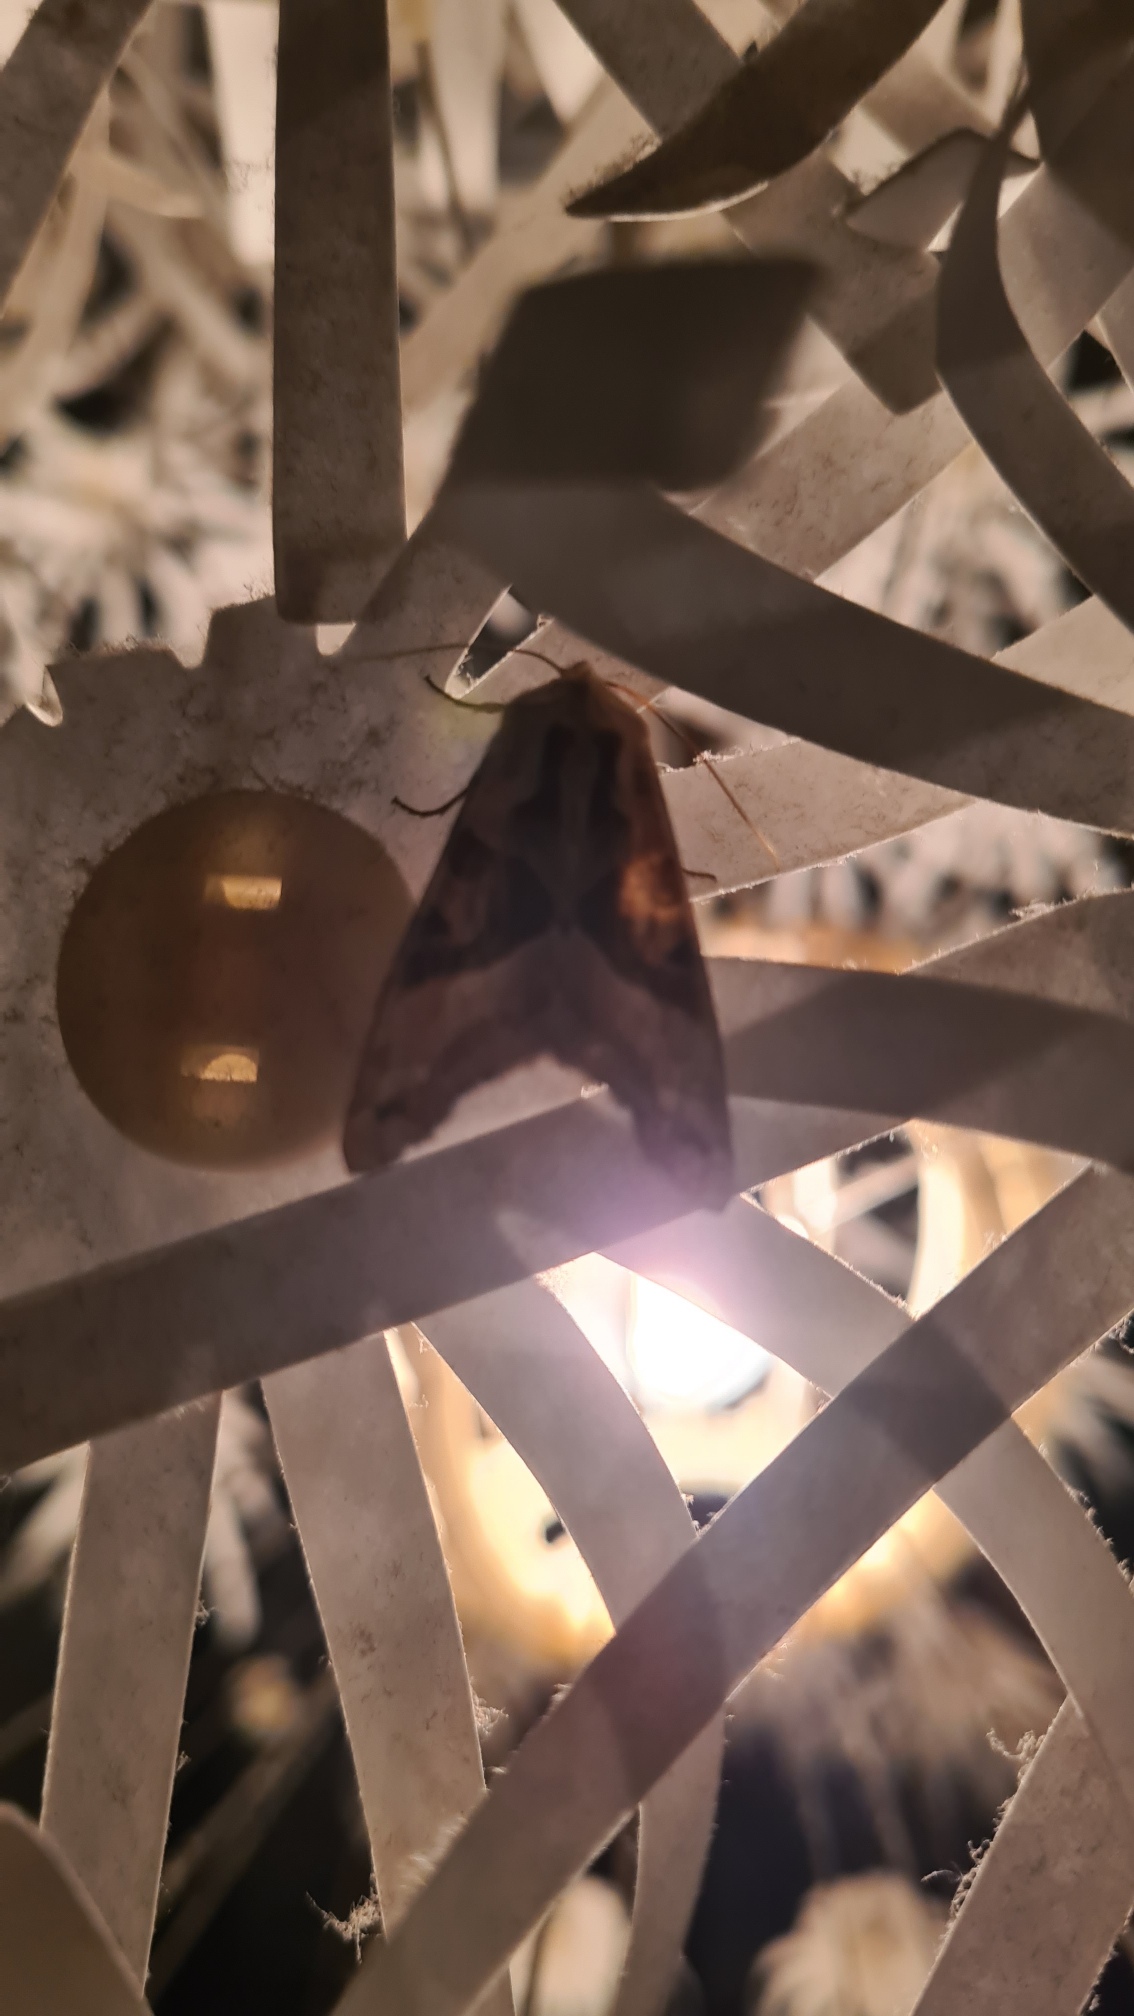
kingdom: Animalia
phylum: Arthropoda
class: Insecta
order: Lepidoptera
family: Noctuidae
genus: Phlogophora
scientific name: Phlogophora meticulosa
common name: Agatugle
